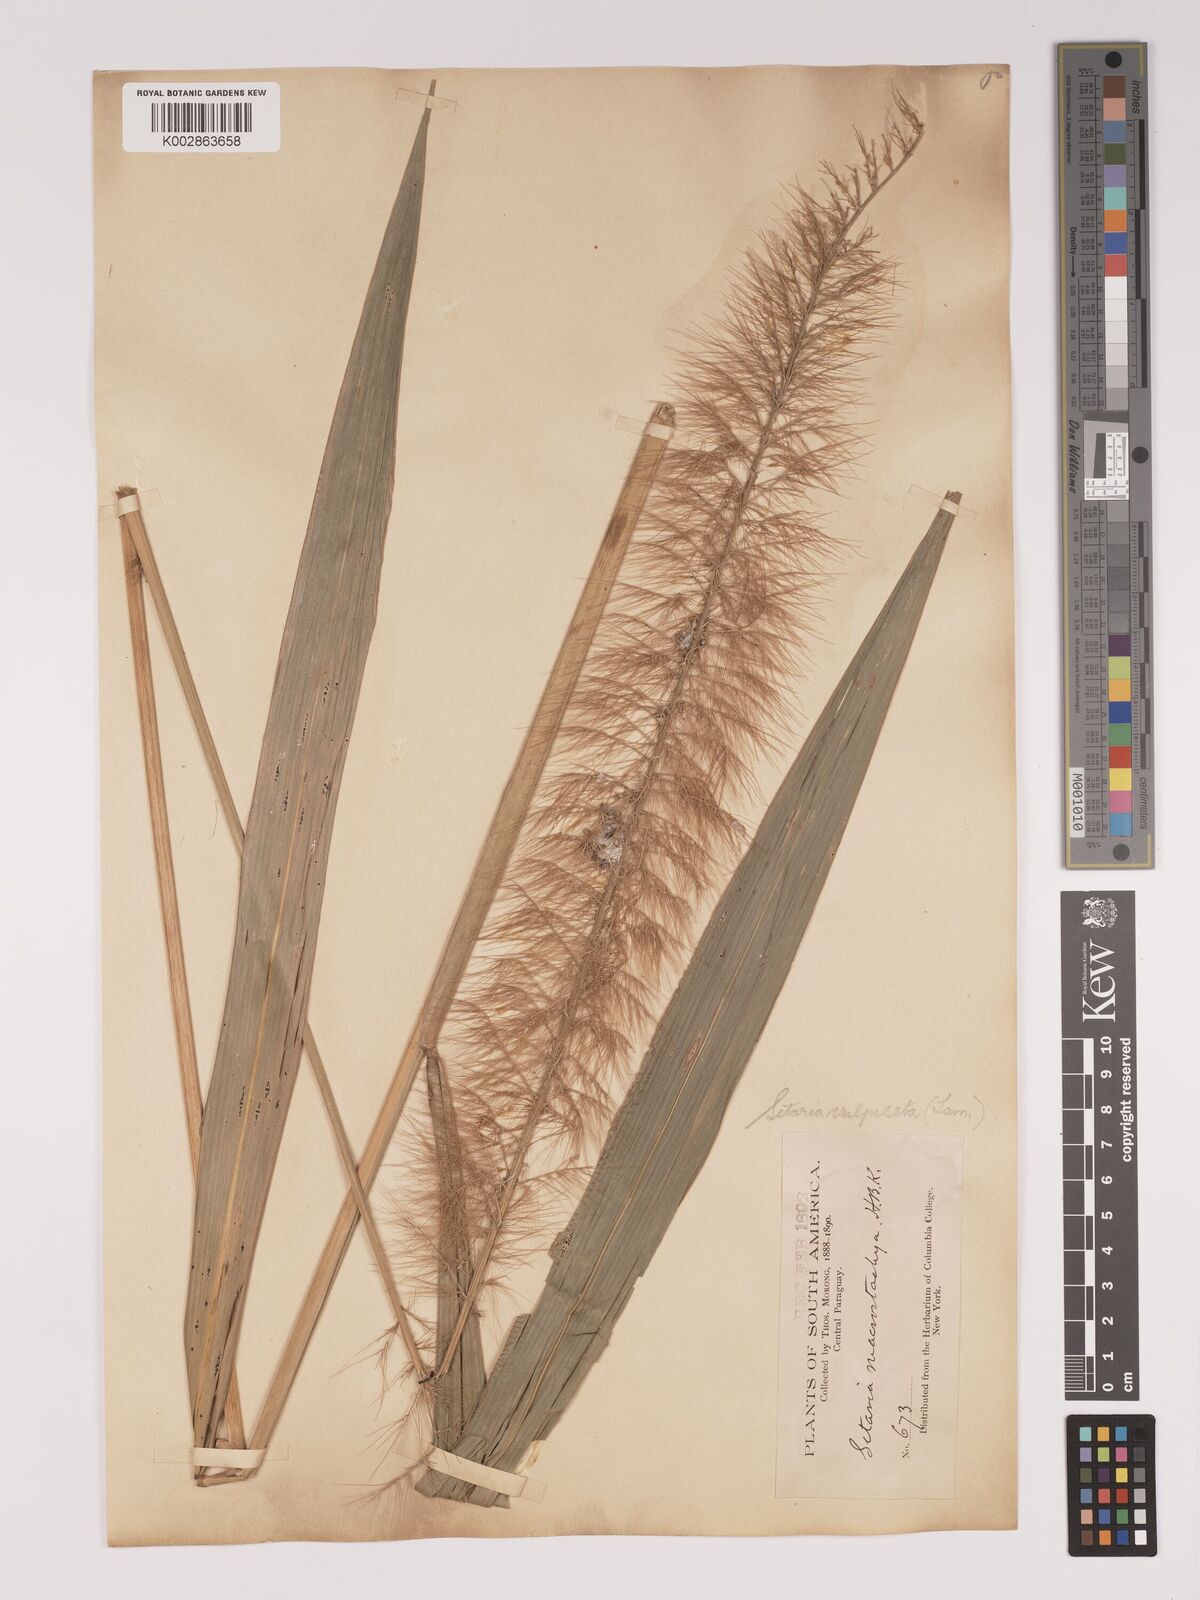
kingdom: Plantae
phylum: Tracheophyta
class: Liliopsida
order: Poales
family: Poaceae
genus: Setaria
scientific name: Setaria vulpiseta
